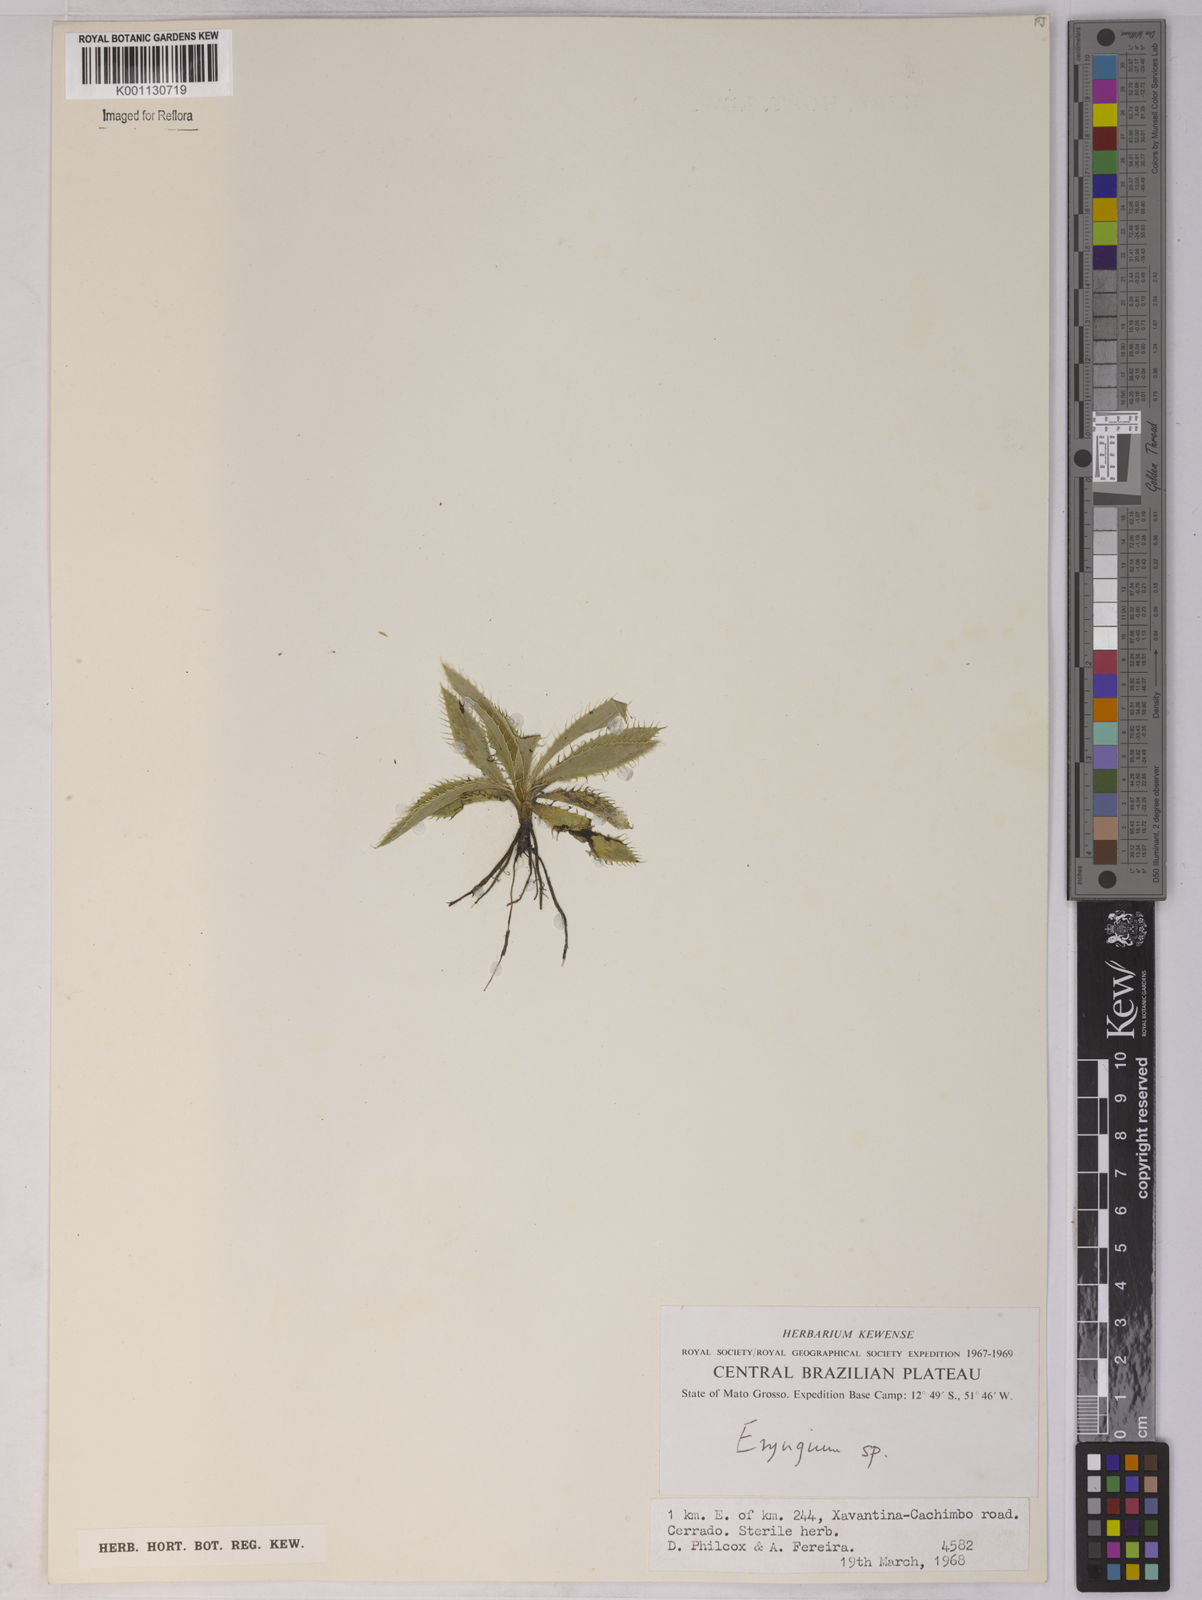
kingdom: Plantae
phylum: Tracheophyta
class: Magnoliopsida
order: Apiales
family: Apiaceae
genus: Eryngium
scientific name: Eryngium
